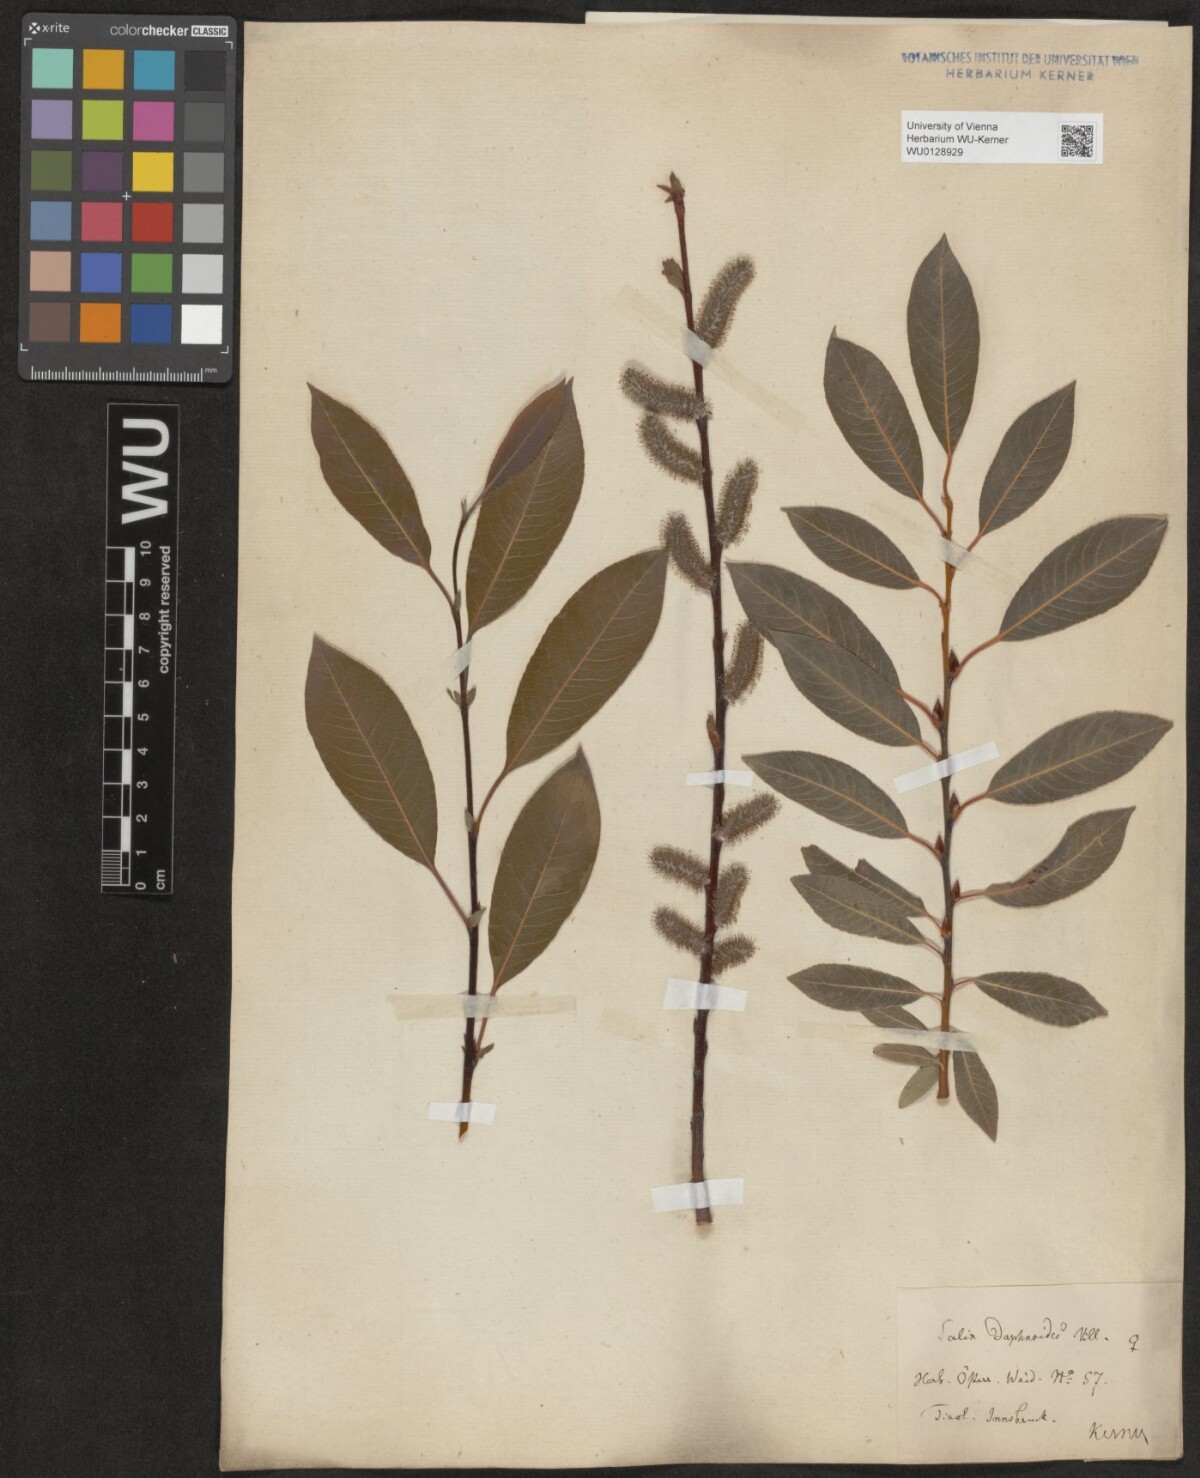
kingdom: Plantae
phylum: Tracheophyta
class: Magnoliopsida
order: Malpighiales
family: Salicaceae
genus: Salix
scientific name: Salix daphnoides
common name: European violet-willow
